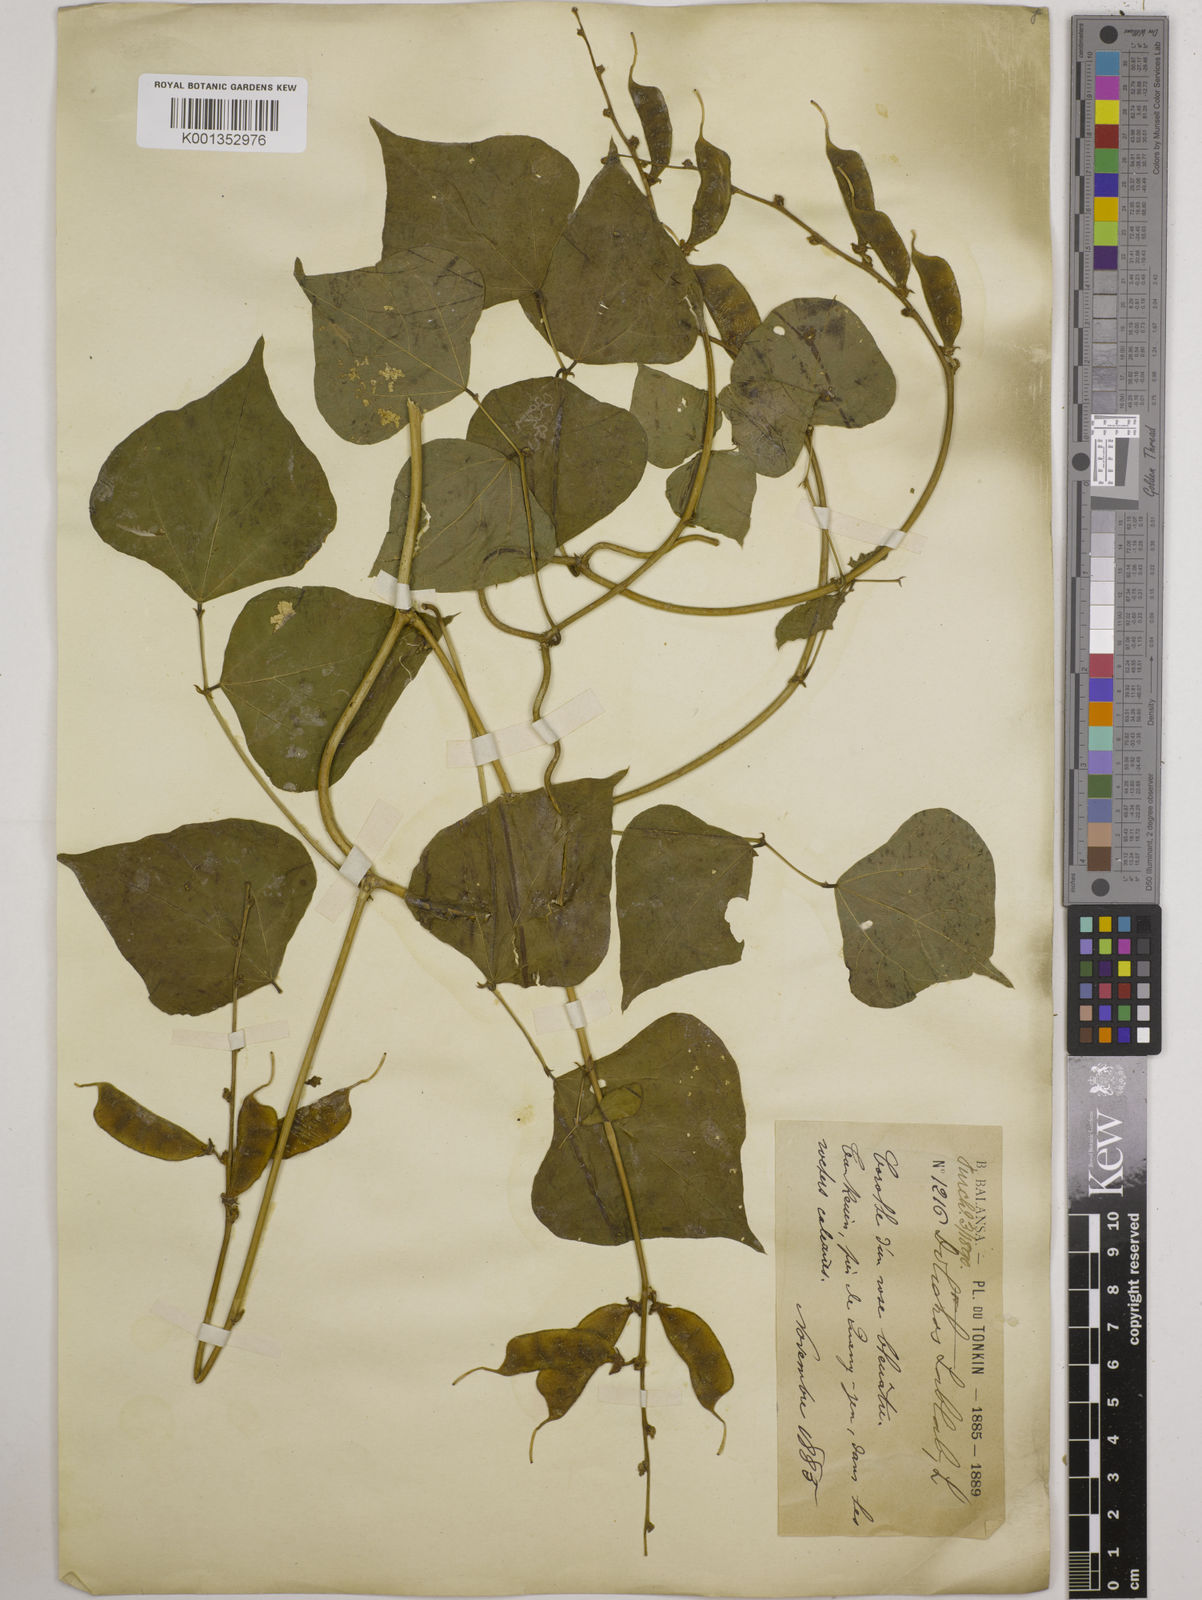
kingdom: Plantae
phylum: Tracheophyta
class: Magnoliopsida
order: Fabales
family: Fabaceae
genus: Lablab
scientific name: Lablab purpureus
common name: Lablab-bean
